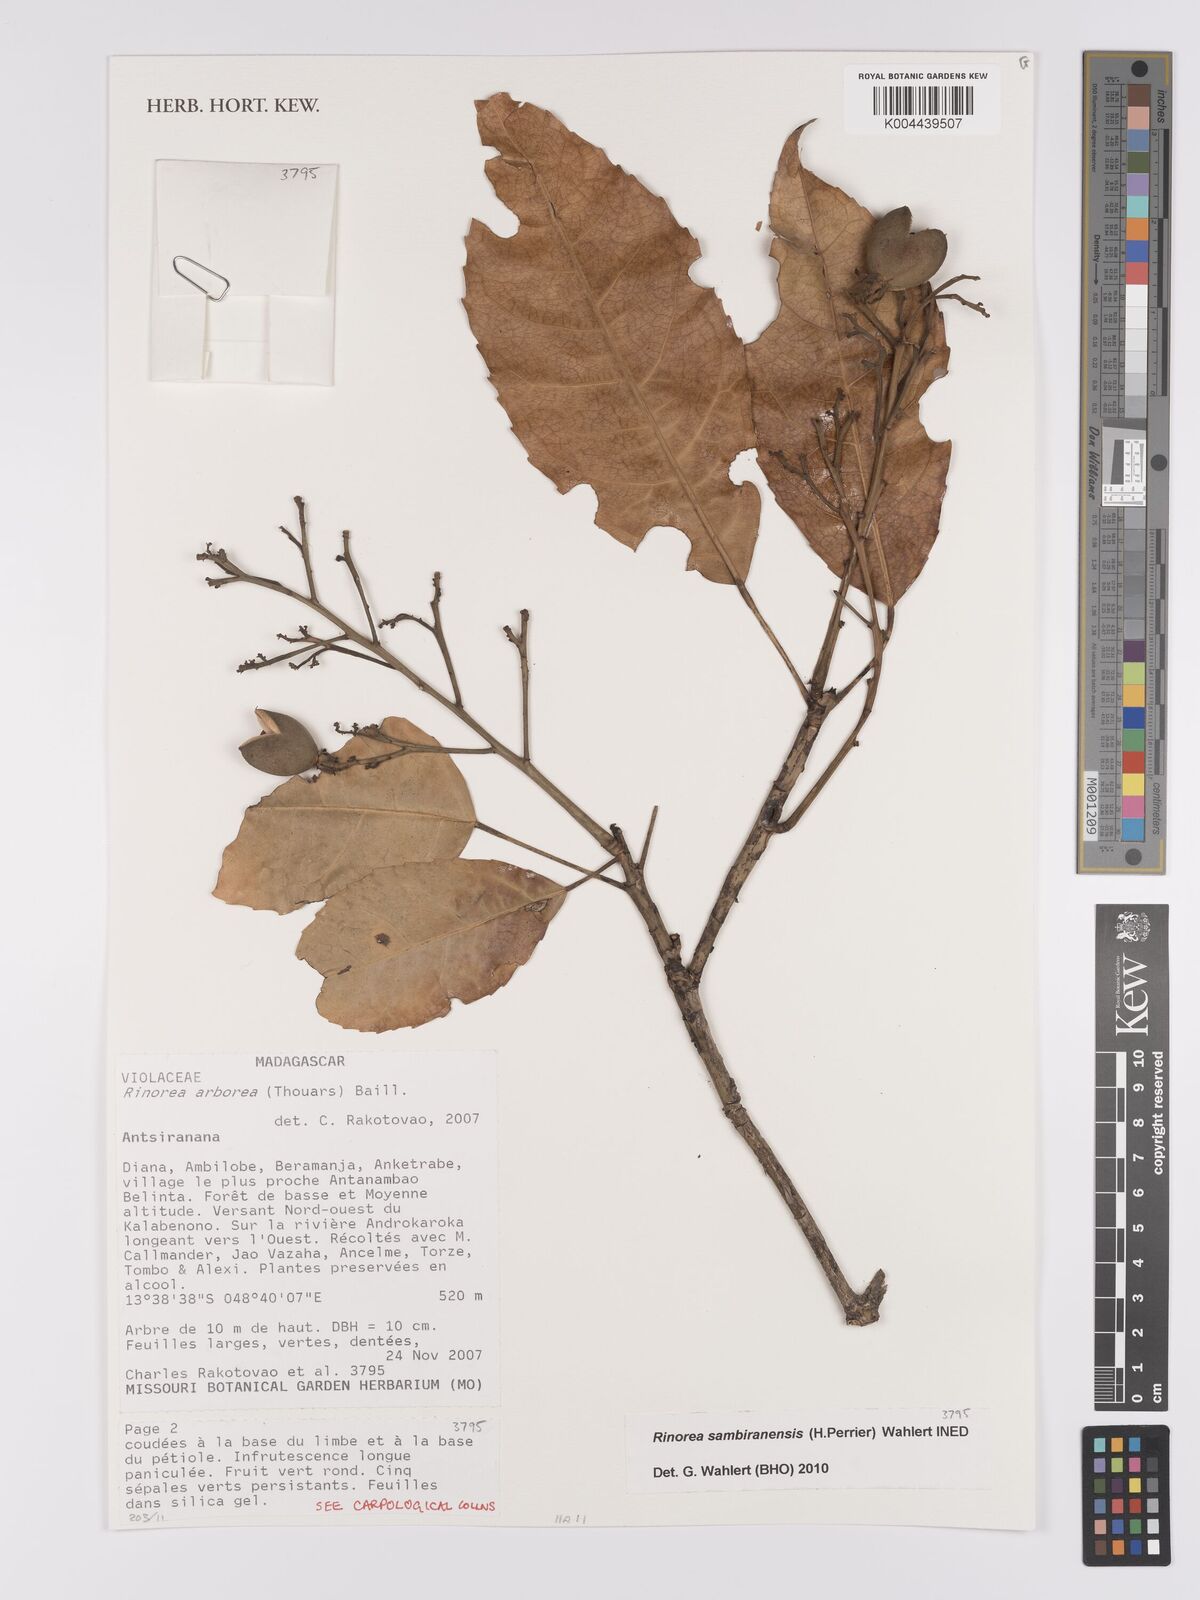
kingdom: Plantae
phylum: Tracheophyta
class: Magnoliopsida
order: Malpighiales
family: Violaceae
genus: Rinorea
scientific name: Rinorea
